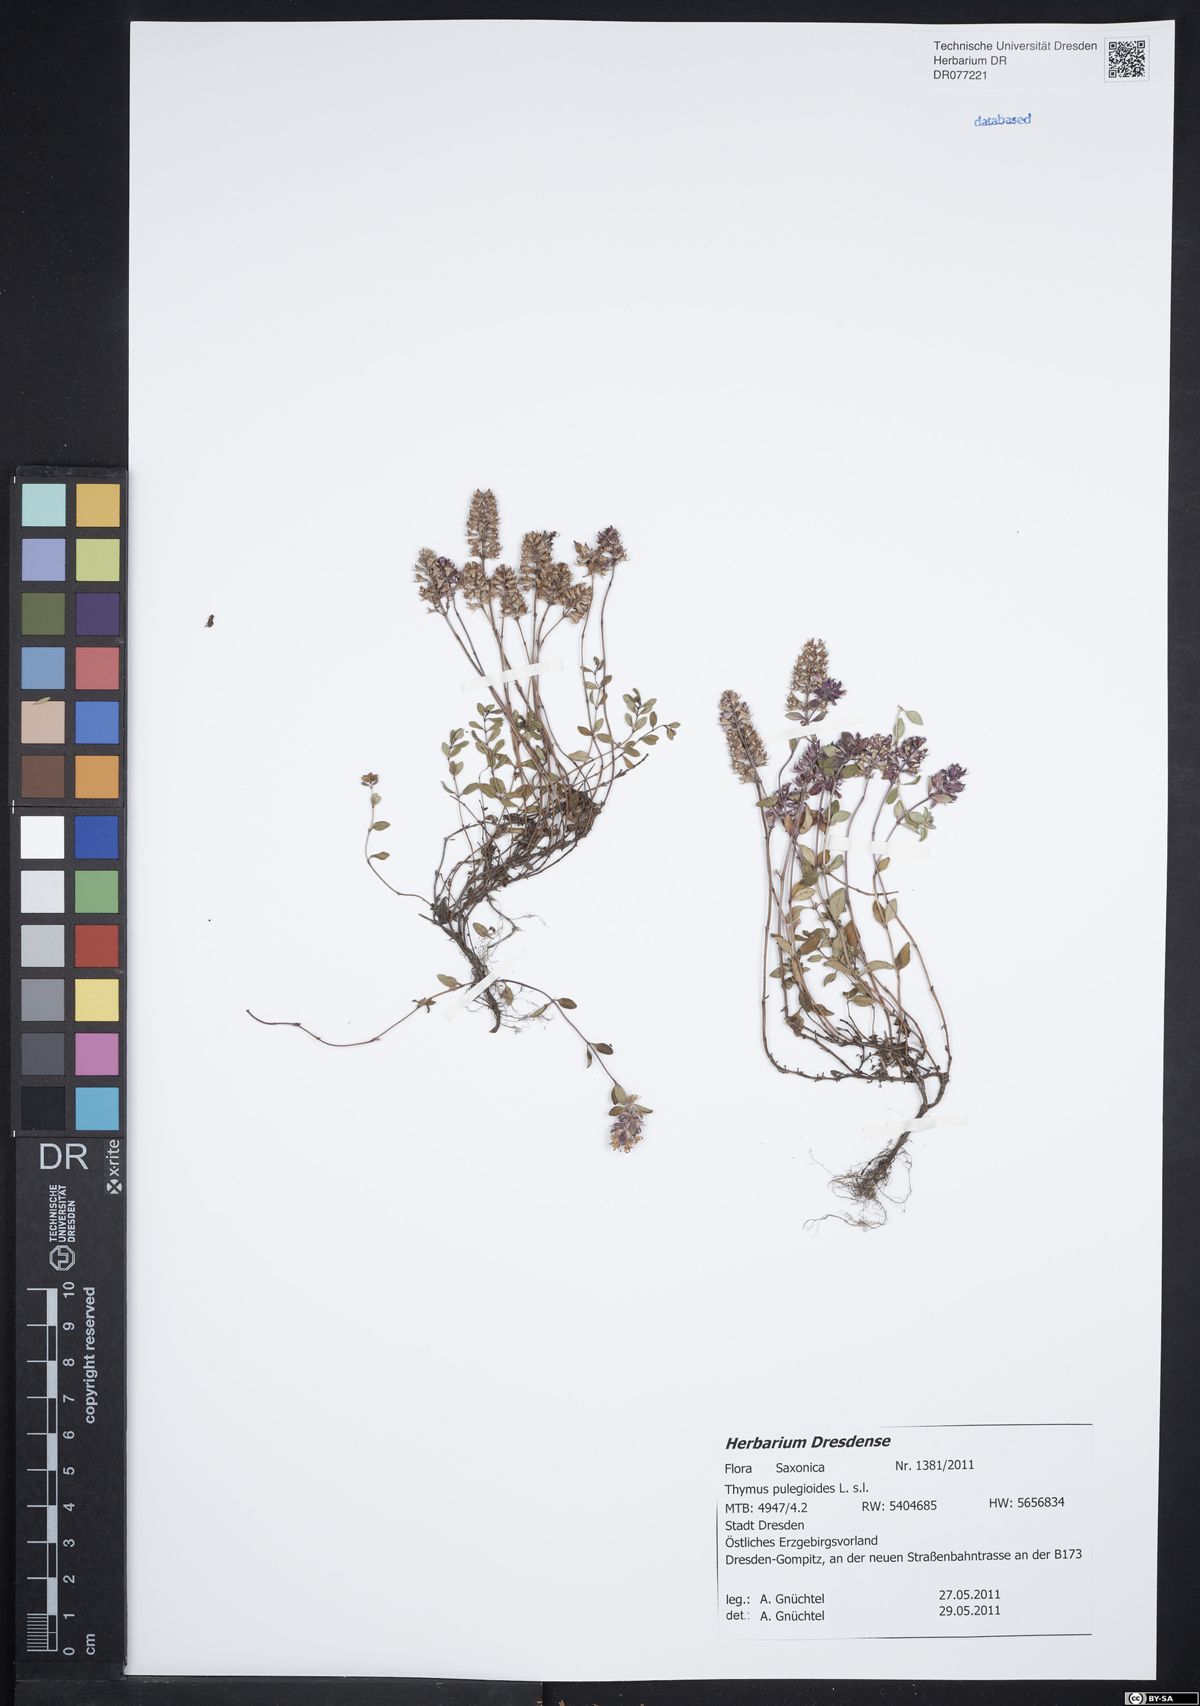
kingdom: Plantae
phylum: Tracheophyta
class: Magnoliopsida
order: Lamiales
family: Lamiaceae
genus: Thymus
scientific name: Thymus pulegioides
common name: Large thyme
